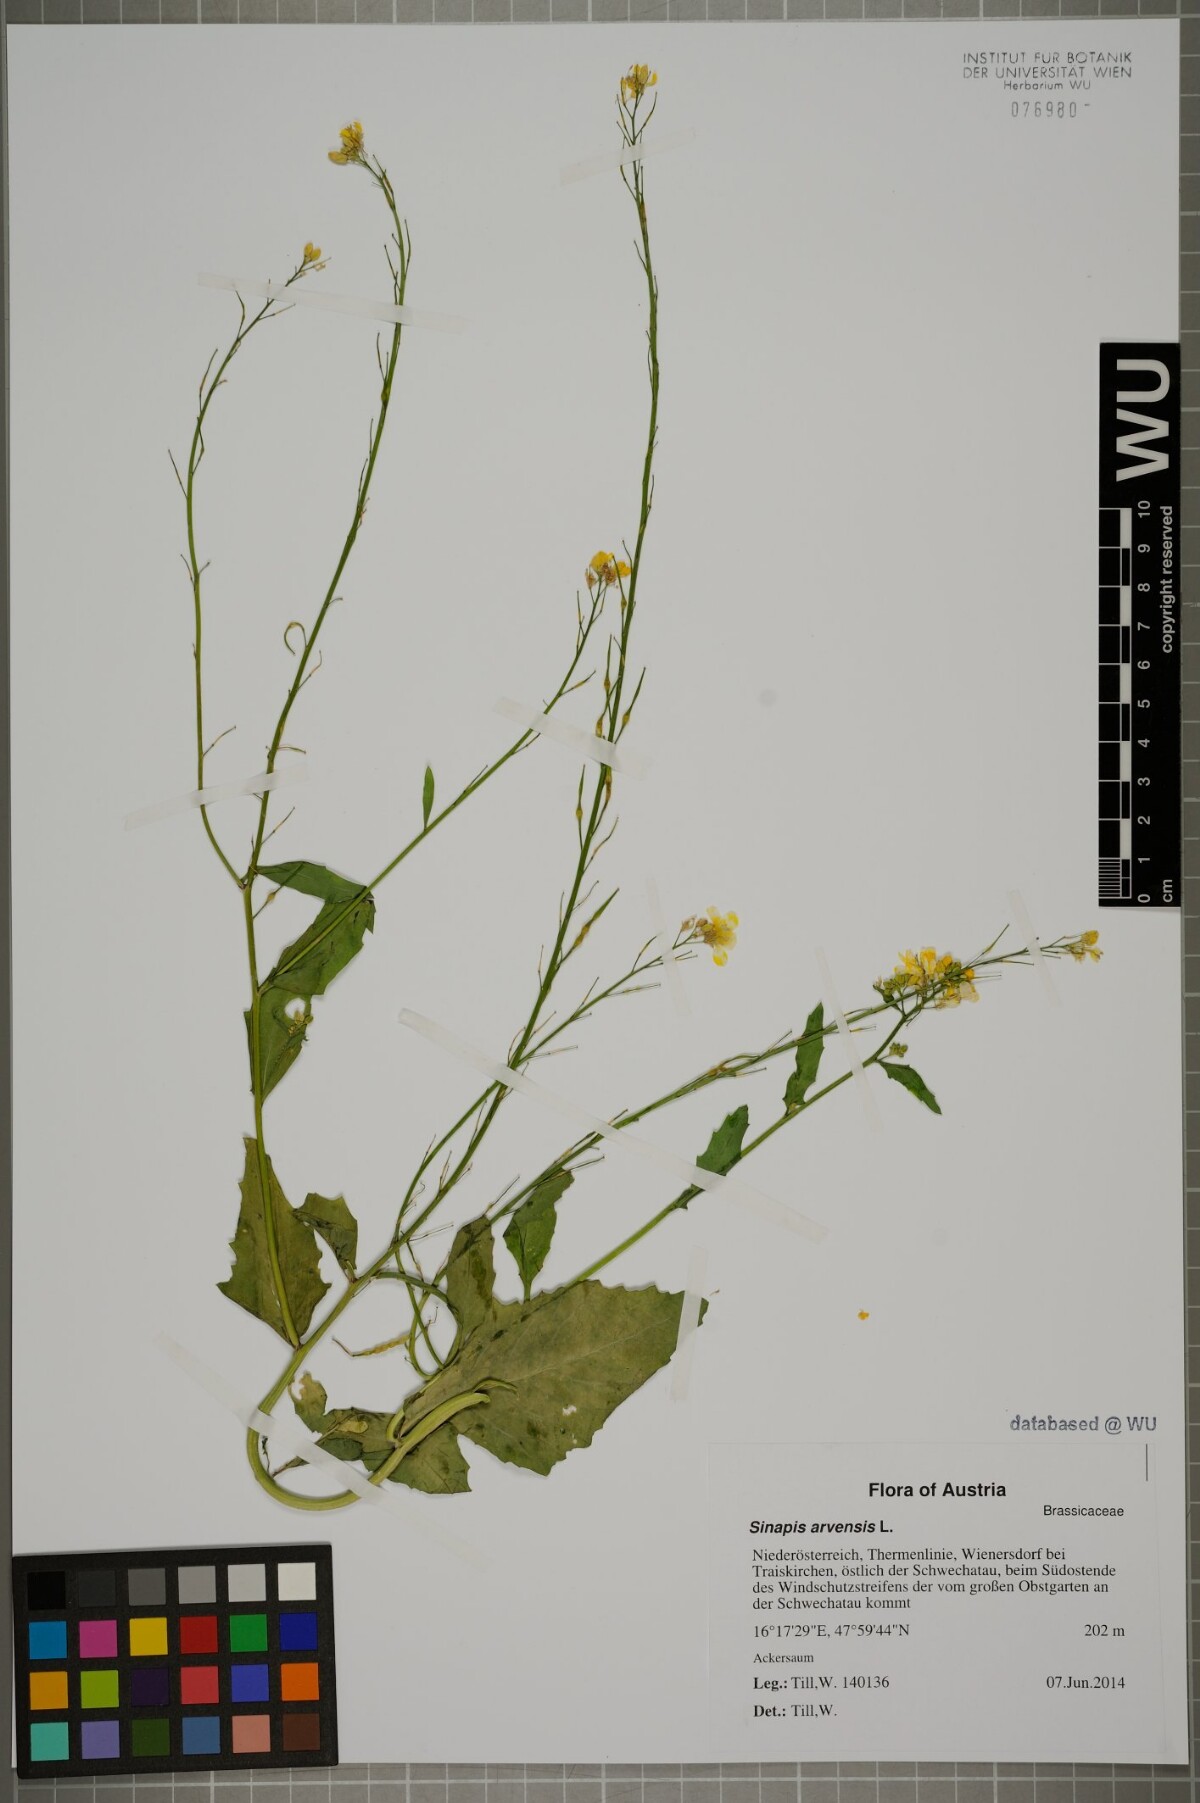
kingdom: Plantae
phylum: Tracheophyta
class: Magnoliopsida
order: Brassicales
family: Brassicaceae
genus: Sinapis
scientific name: Sinapis arvensis
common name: Charlock
